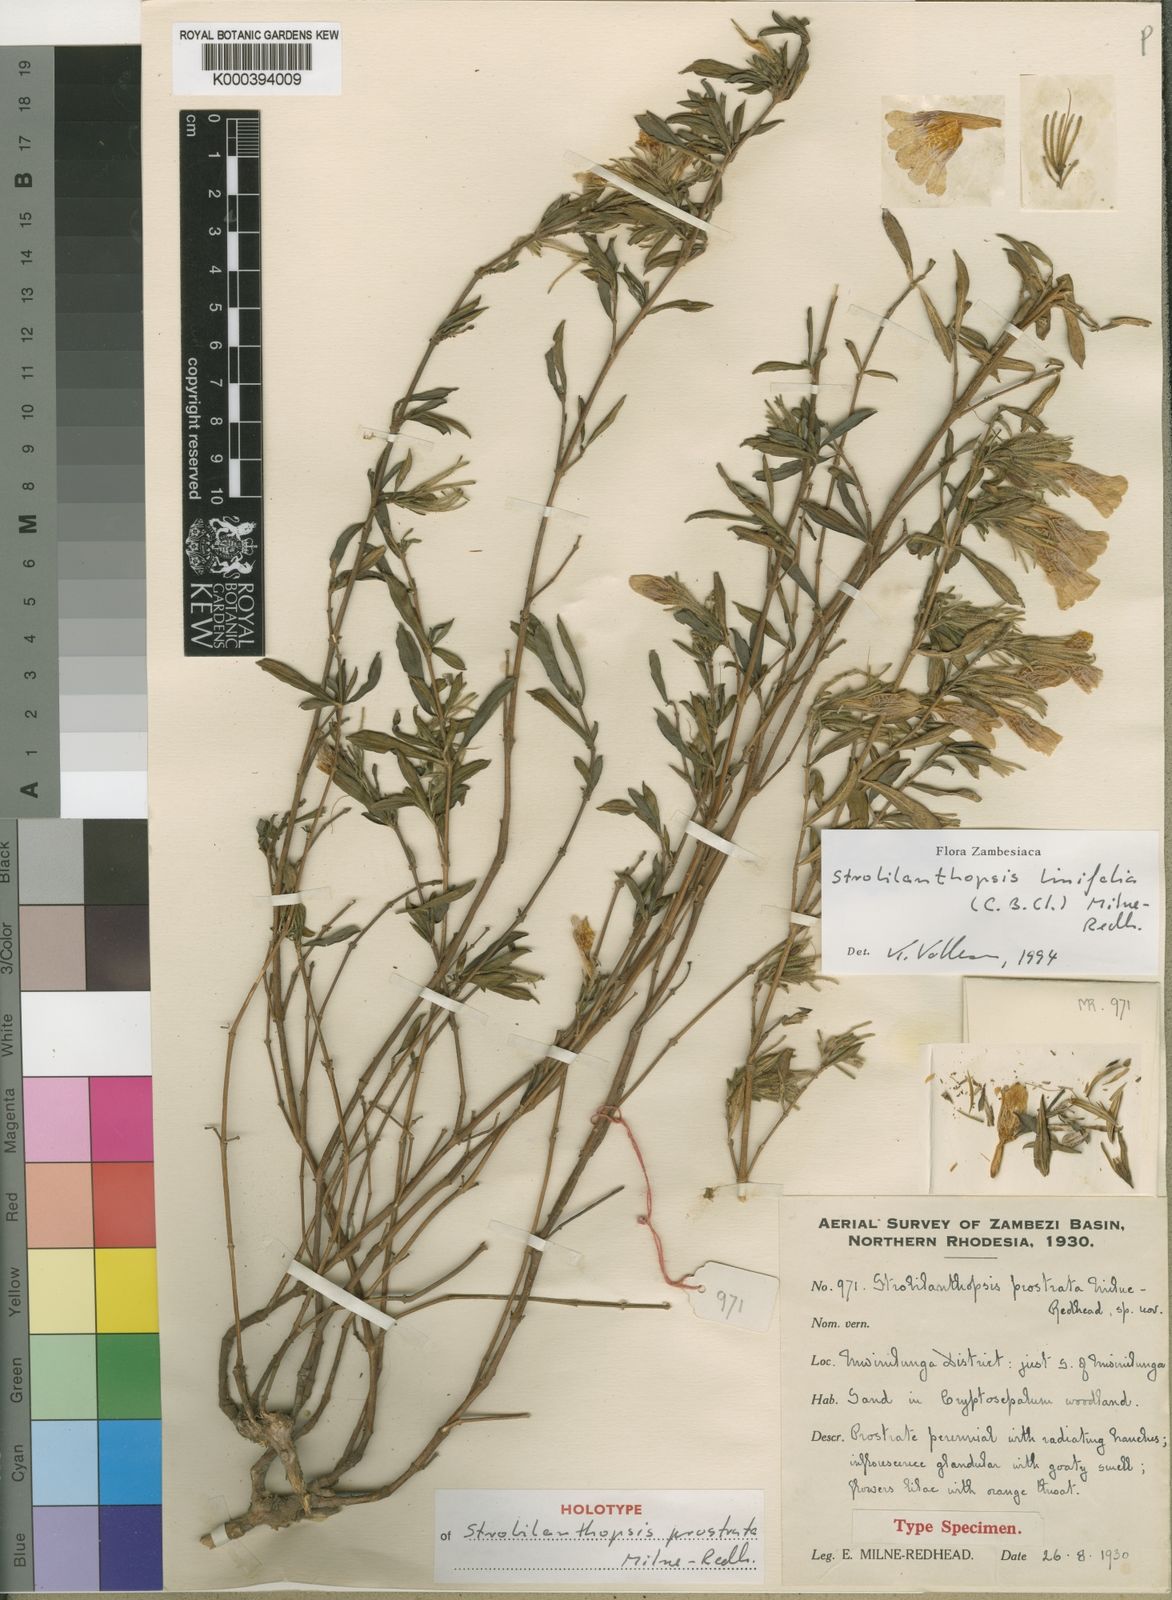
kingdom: Plantae
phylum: Tracheophyta
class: Magnoliopsida
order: Lamiales
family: Acanthaceae
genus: Strobilanthopsis
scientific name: Strobilanthopsis linifolia
